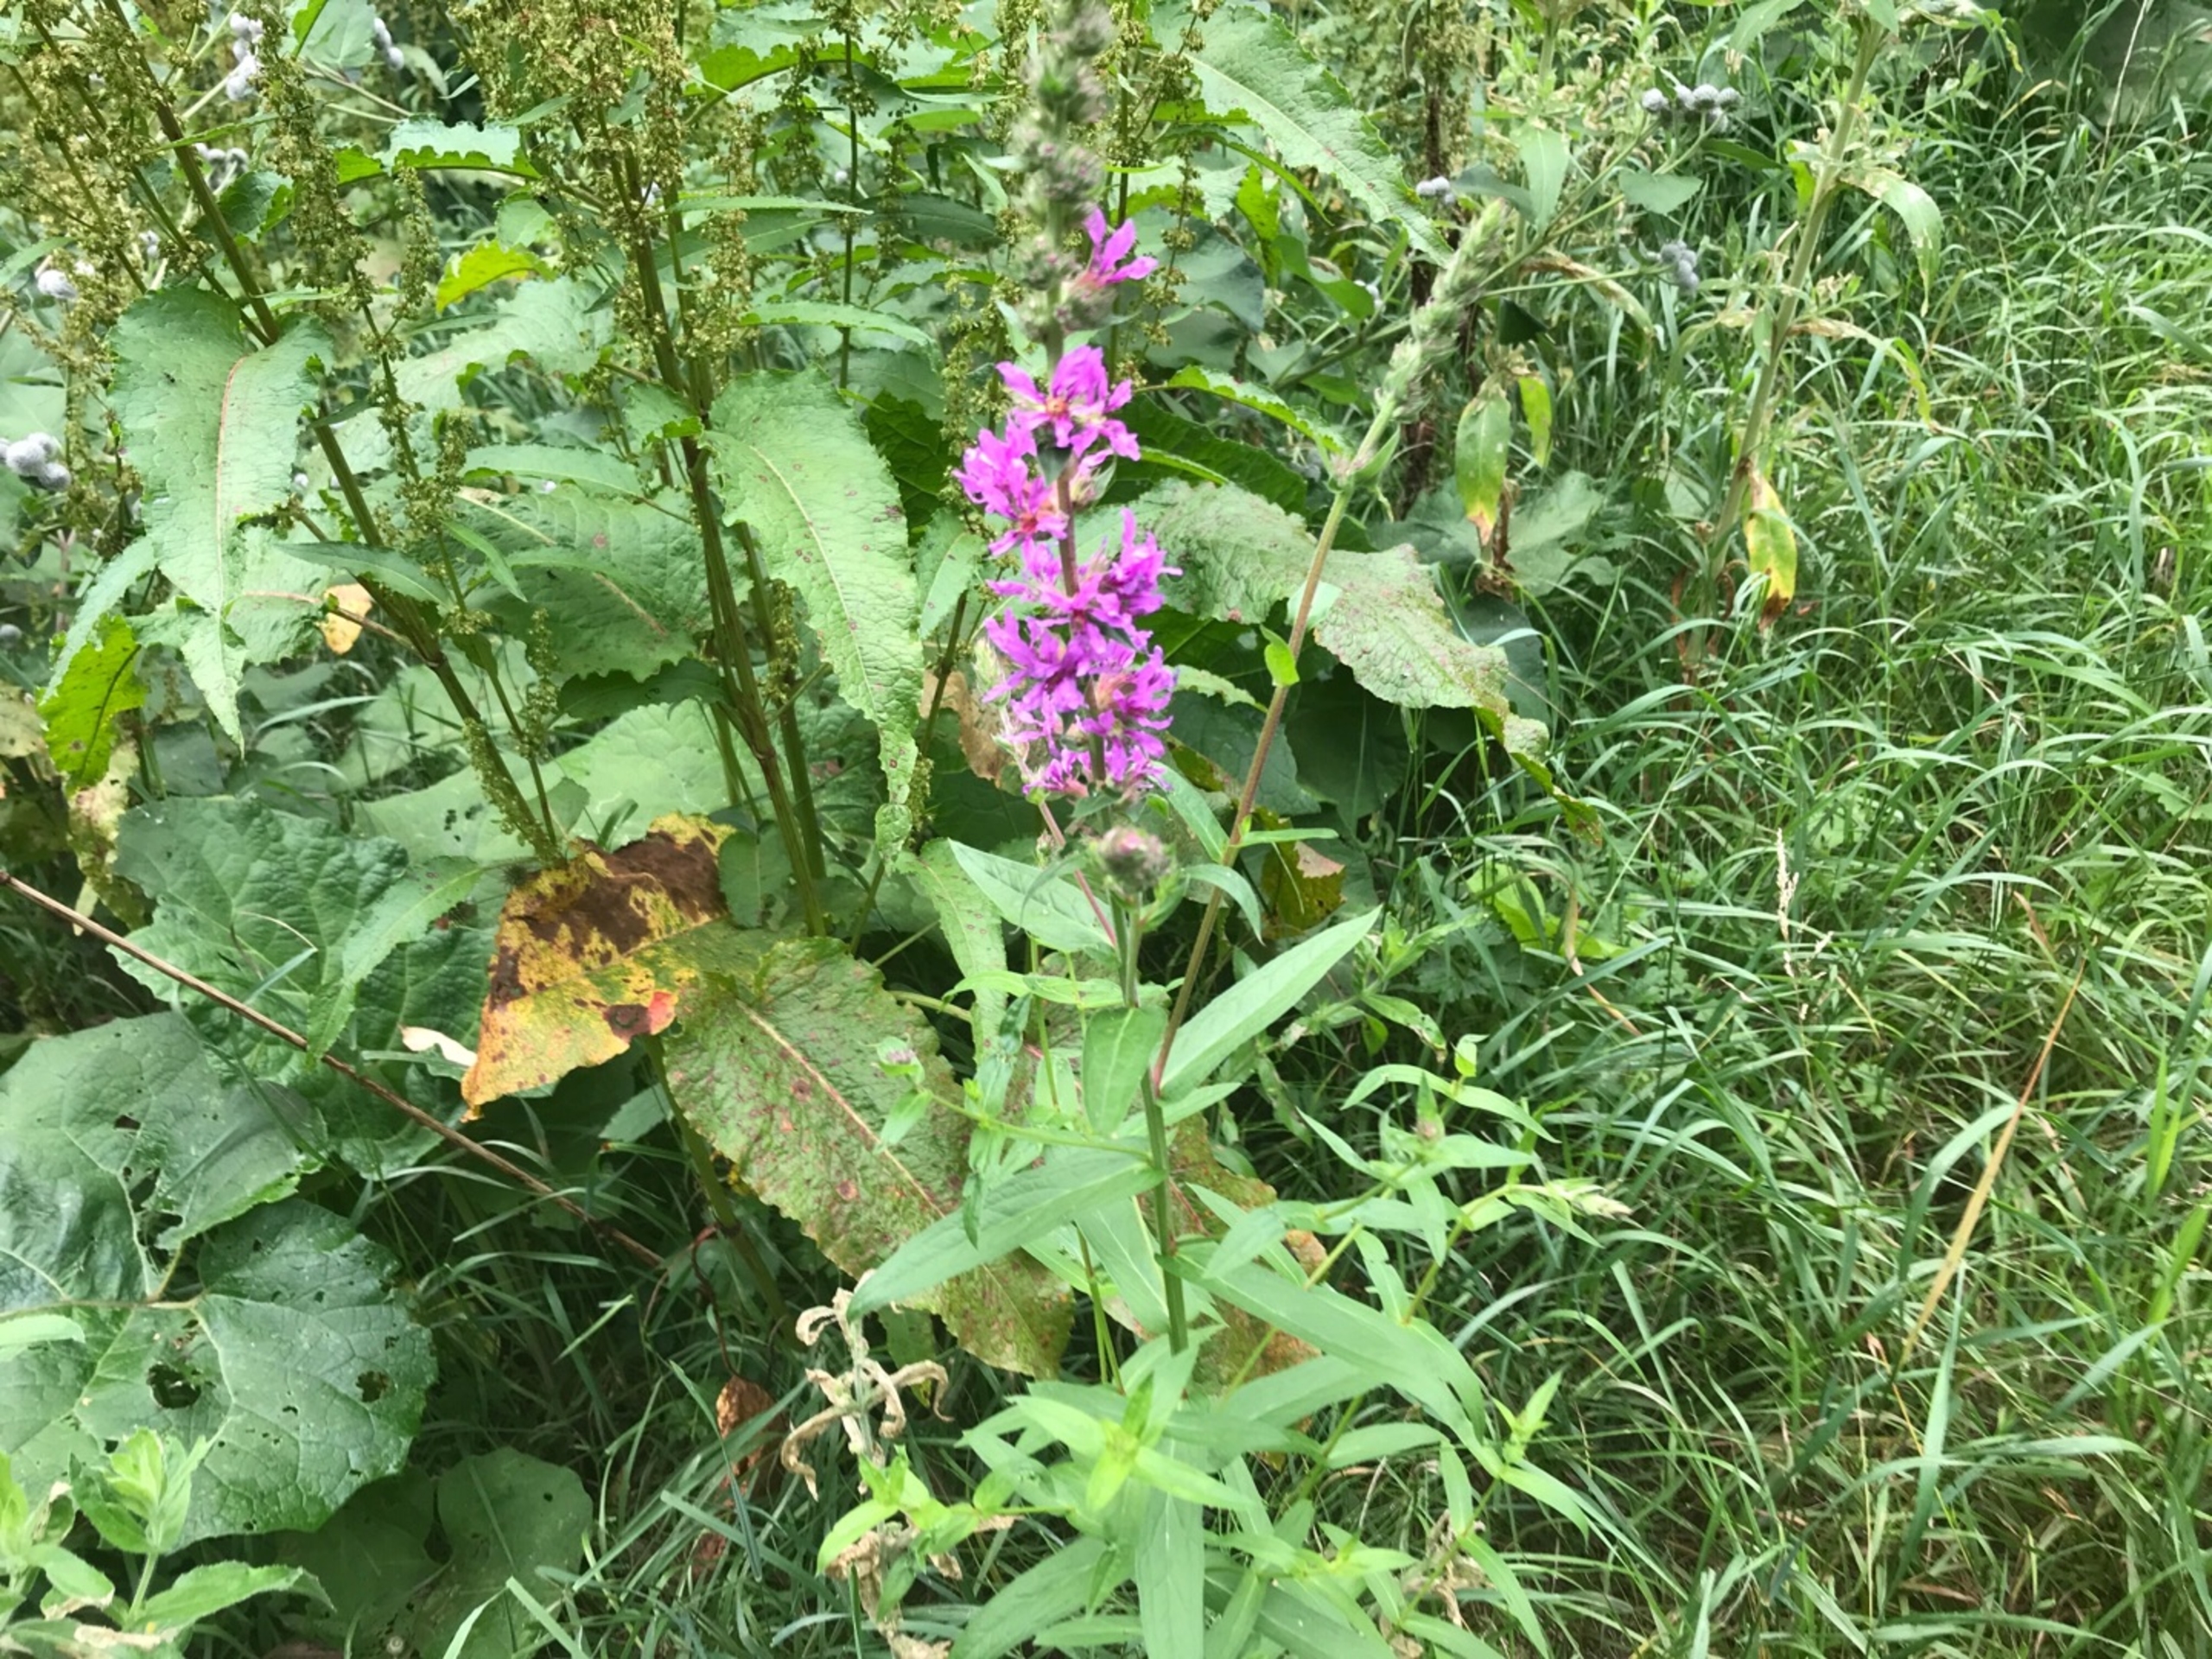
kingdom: Plantae
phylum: Tracheophyta
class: Magnoliopsida
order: Myrtales
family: Lythraceae
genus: Lythrum
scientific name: Lythrum salicaria
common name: Kattehale
